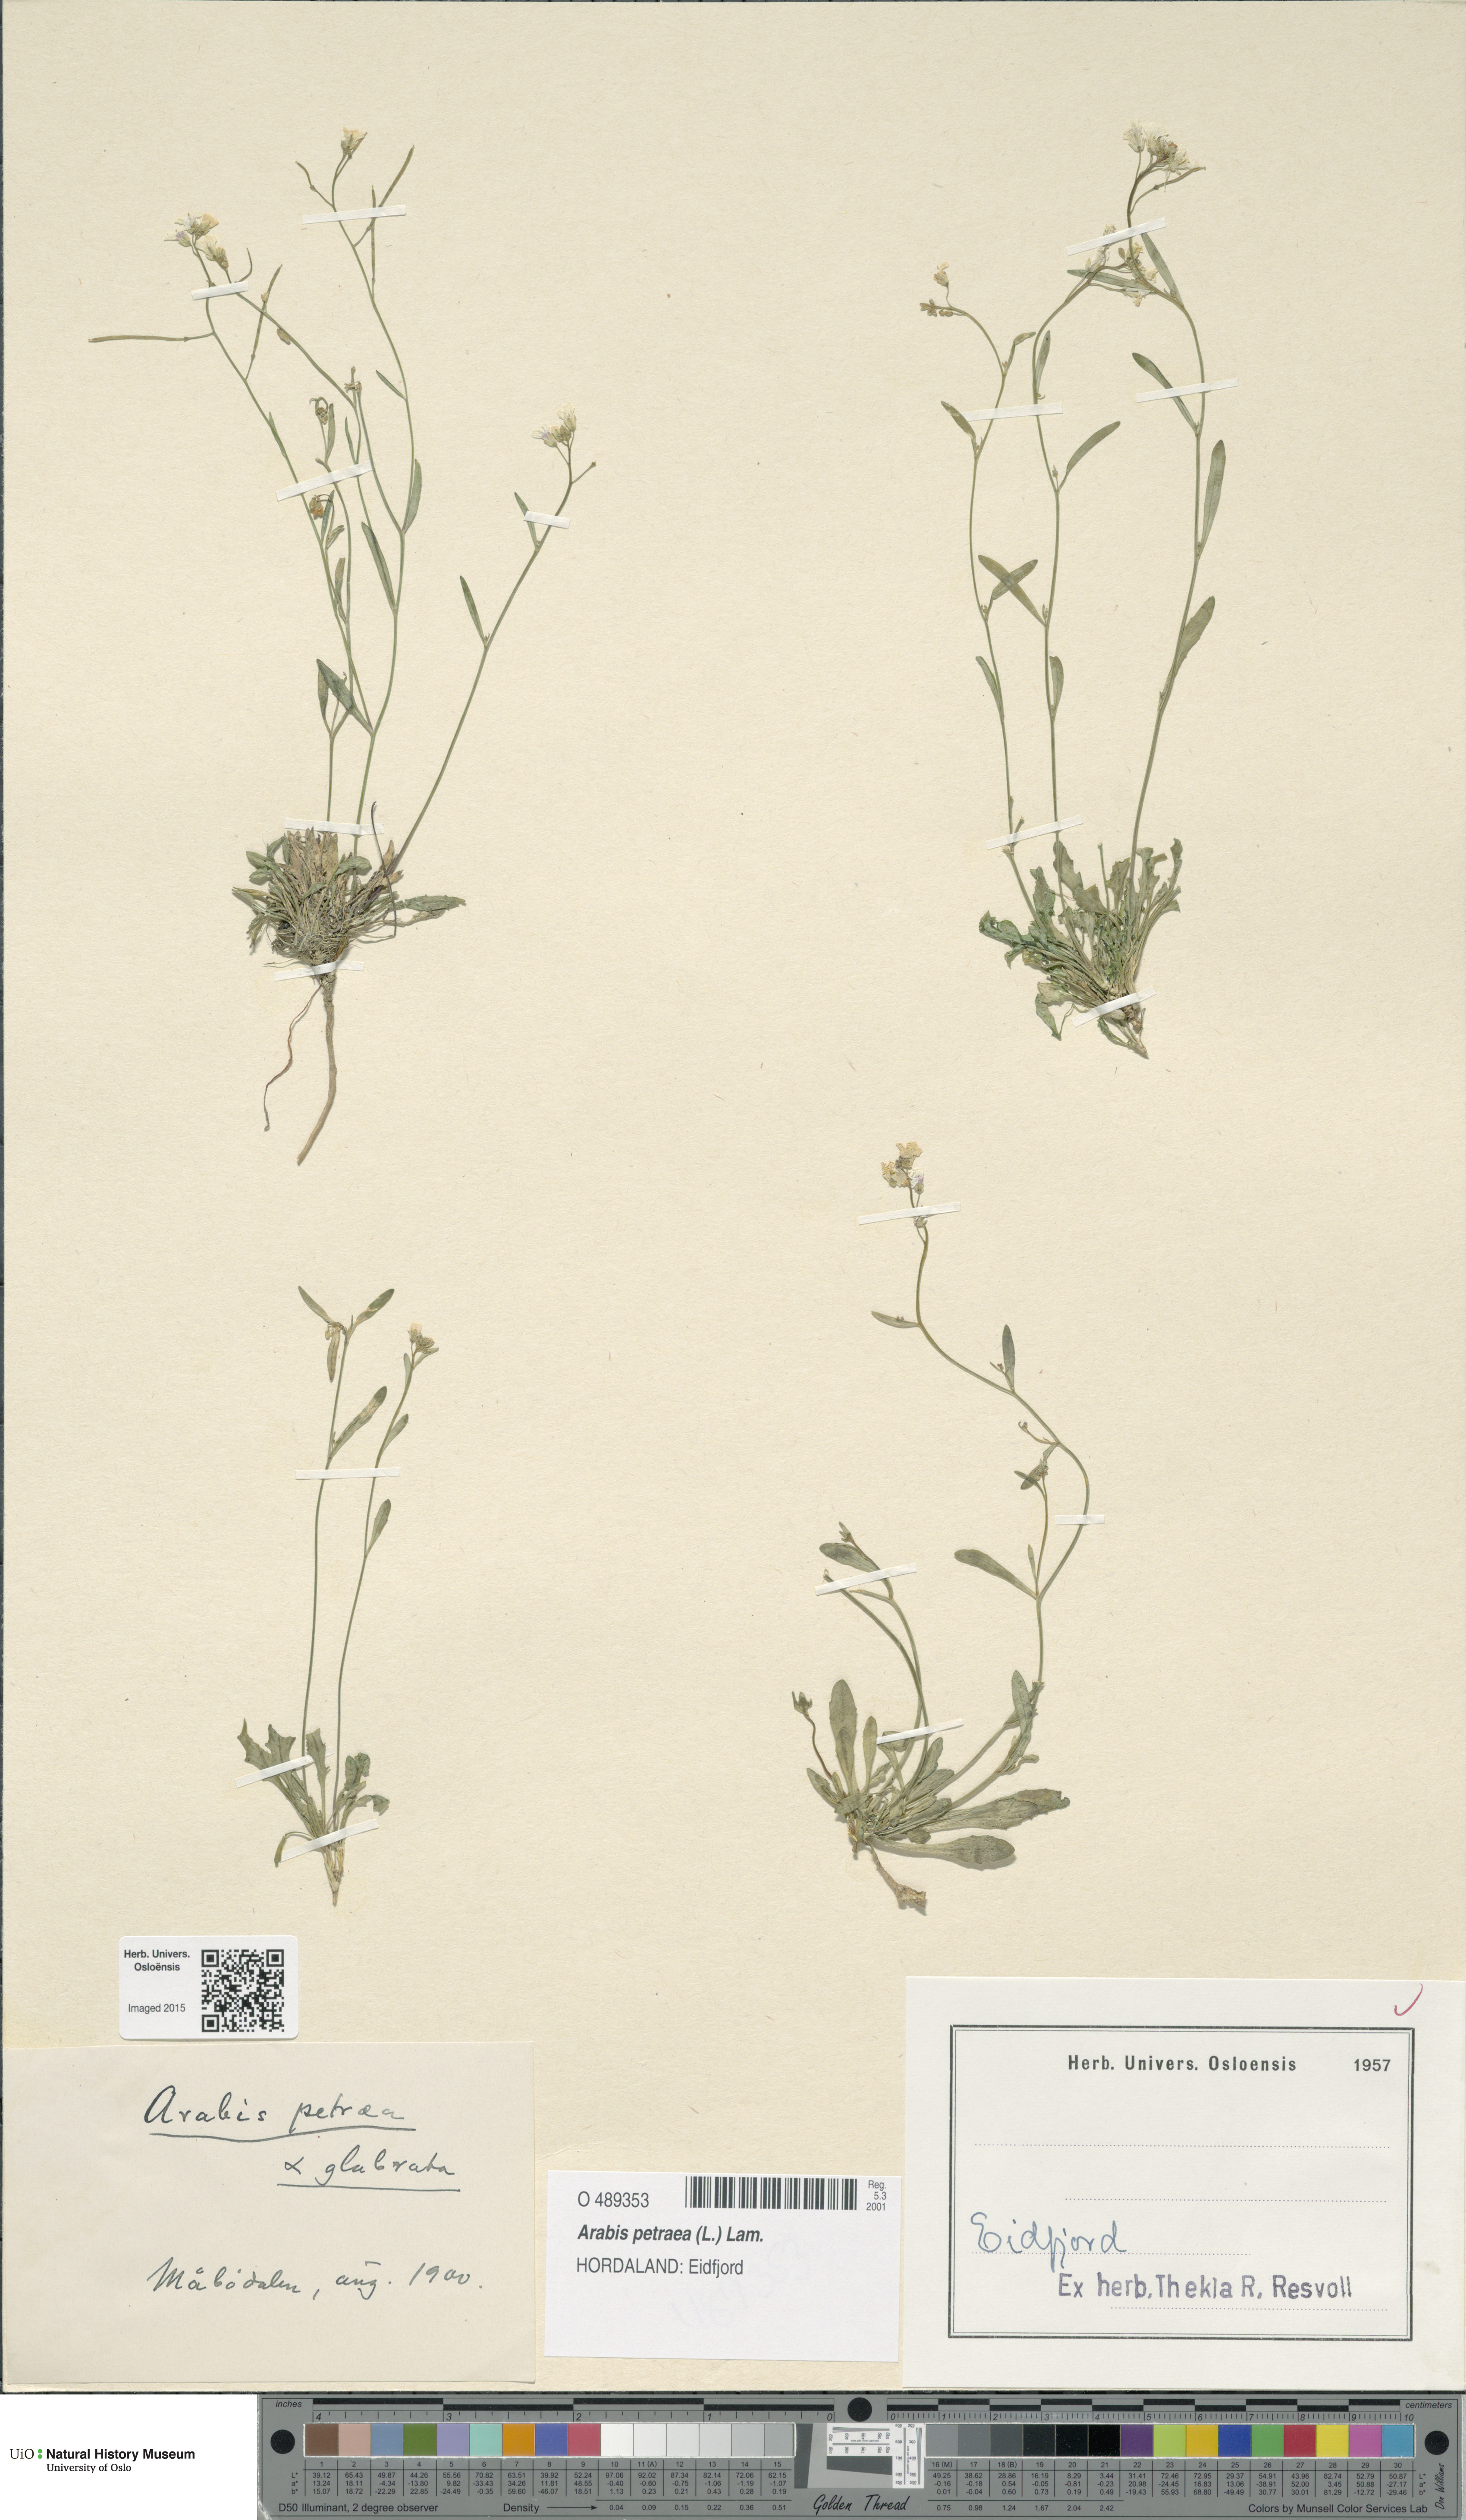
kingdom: Plantae
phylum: Tracheophyta
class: Magnoliopsida
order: Brassicales
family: Brassicaceae
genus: Arabidopsis
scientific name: Arabidopsis petraea
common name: Northern rock-cress
